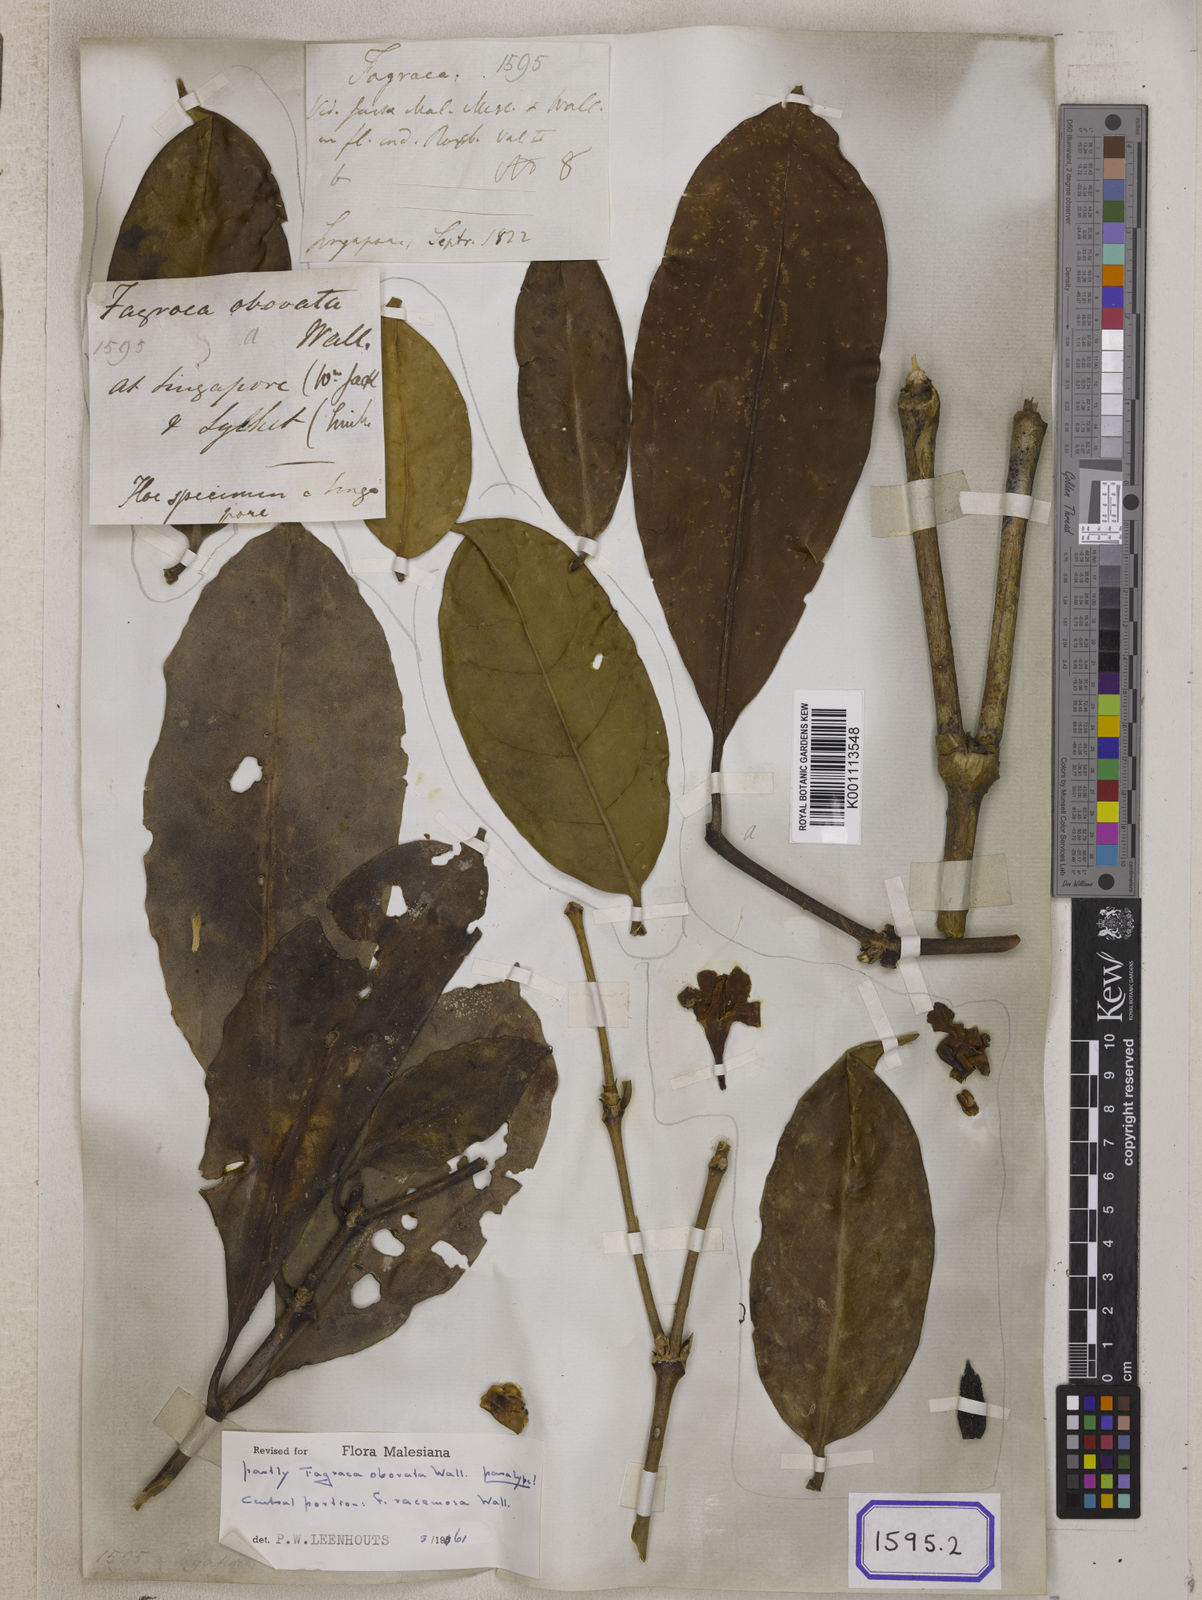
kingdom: Plantae
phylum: Tracheophyta
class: Magnoliopsida
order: Gentianales
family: Gentianaceae
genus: Fagraea
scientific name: Fagraea ceilanica
